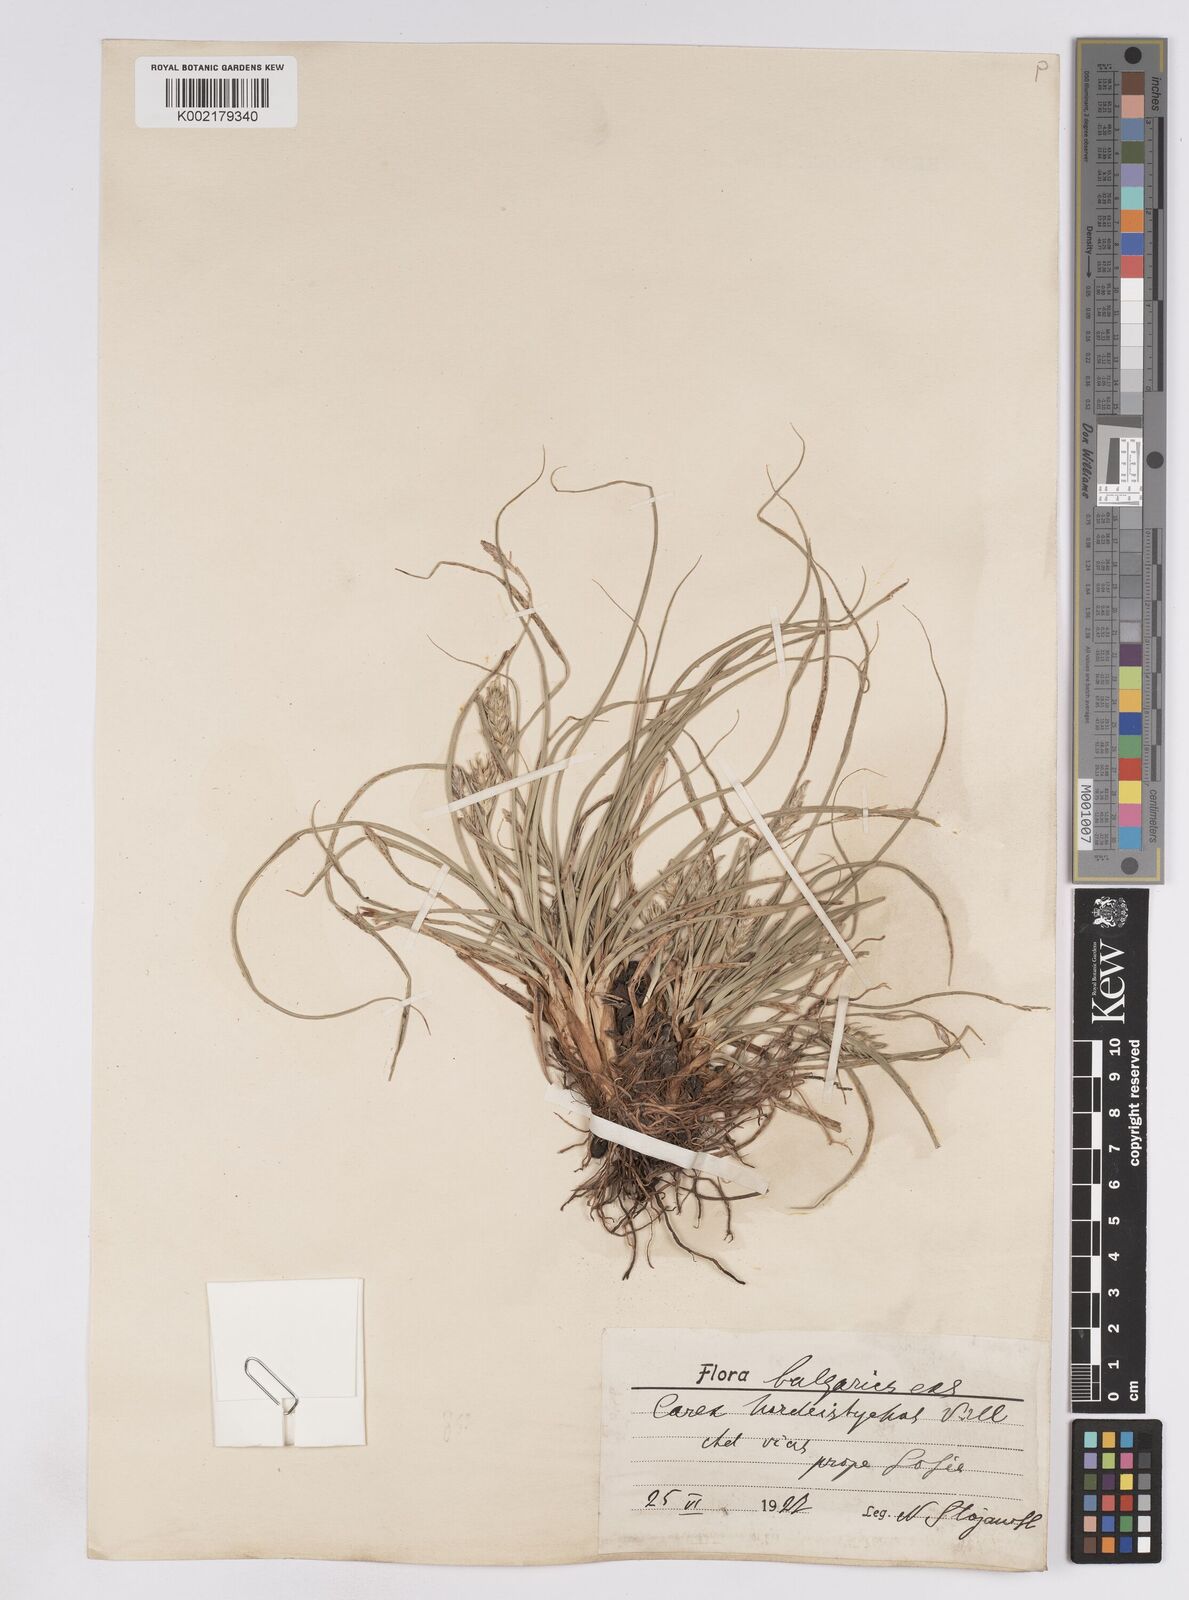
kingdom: Plantae
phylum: Tracheophyta
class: Liliopsida
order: Poales
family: Cyperaceae
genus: Carex
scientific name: Carex hordeistichos
